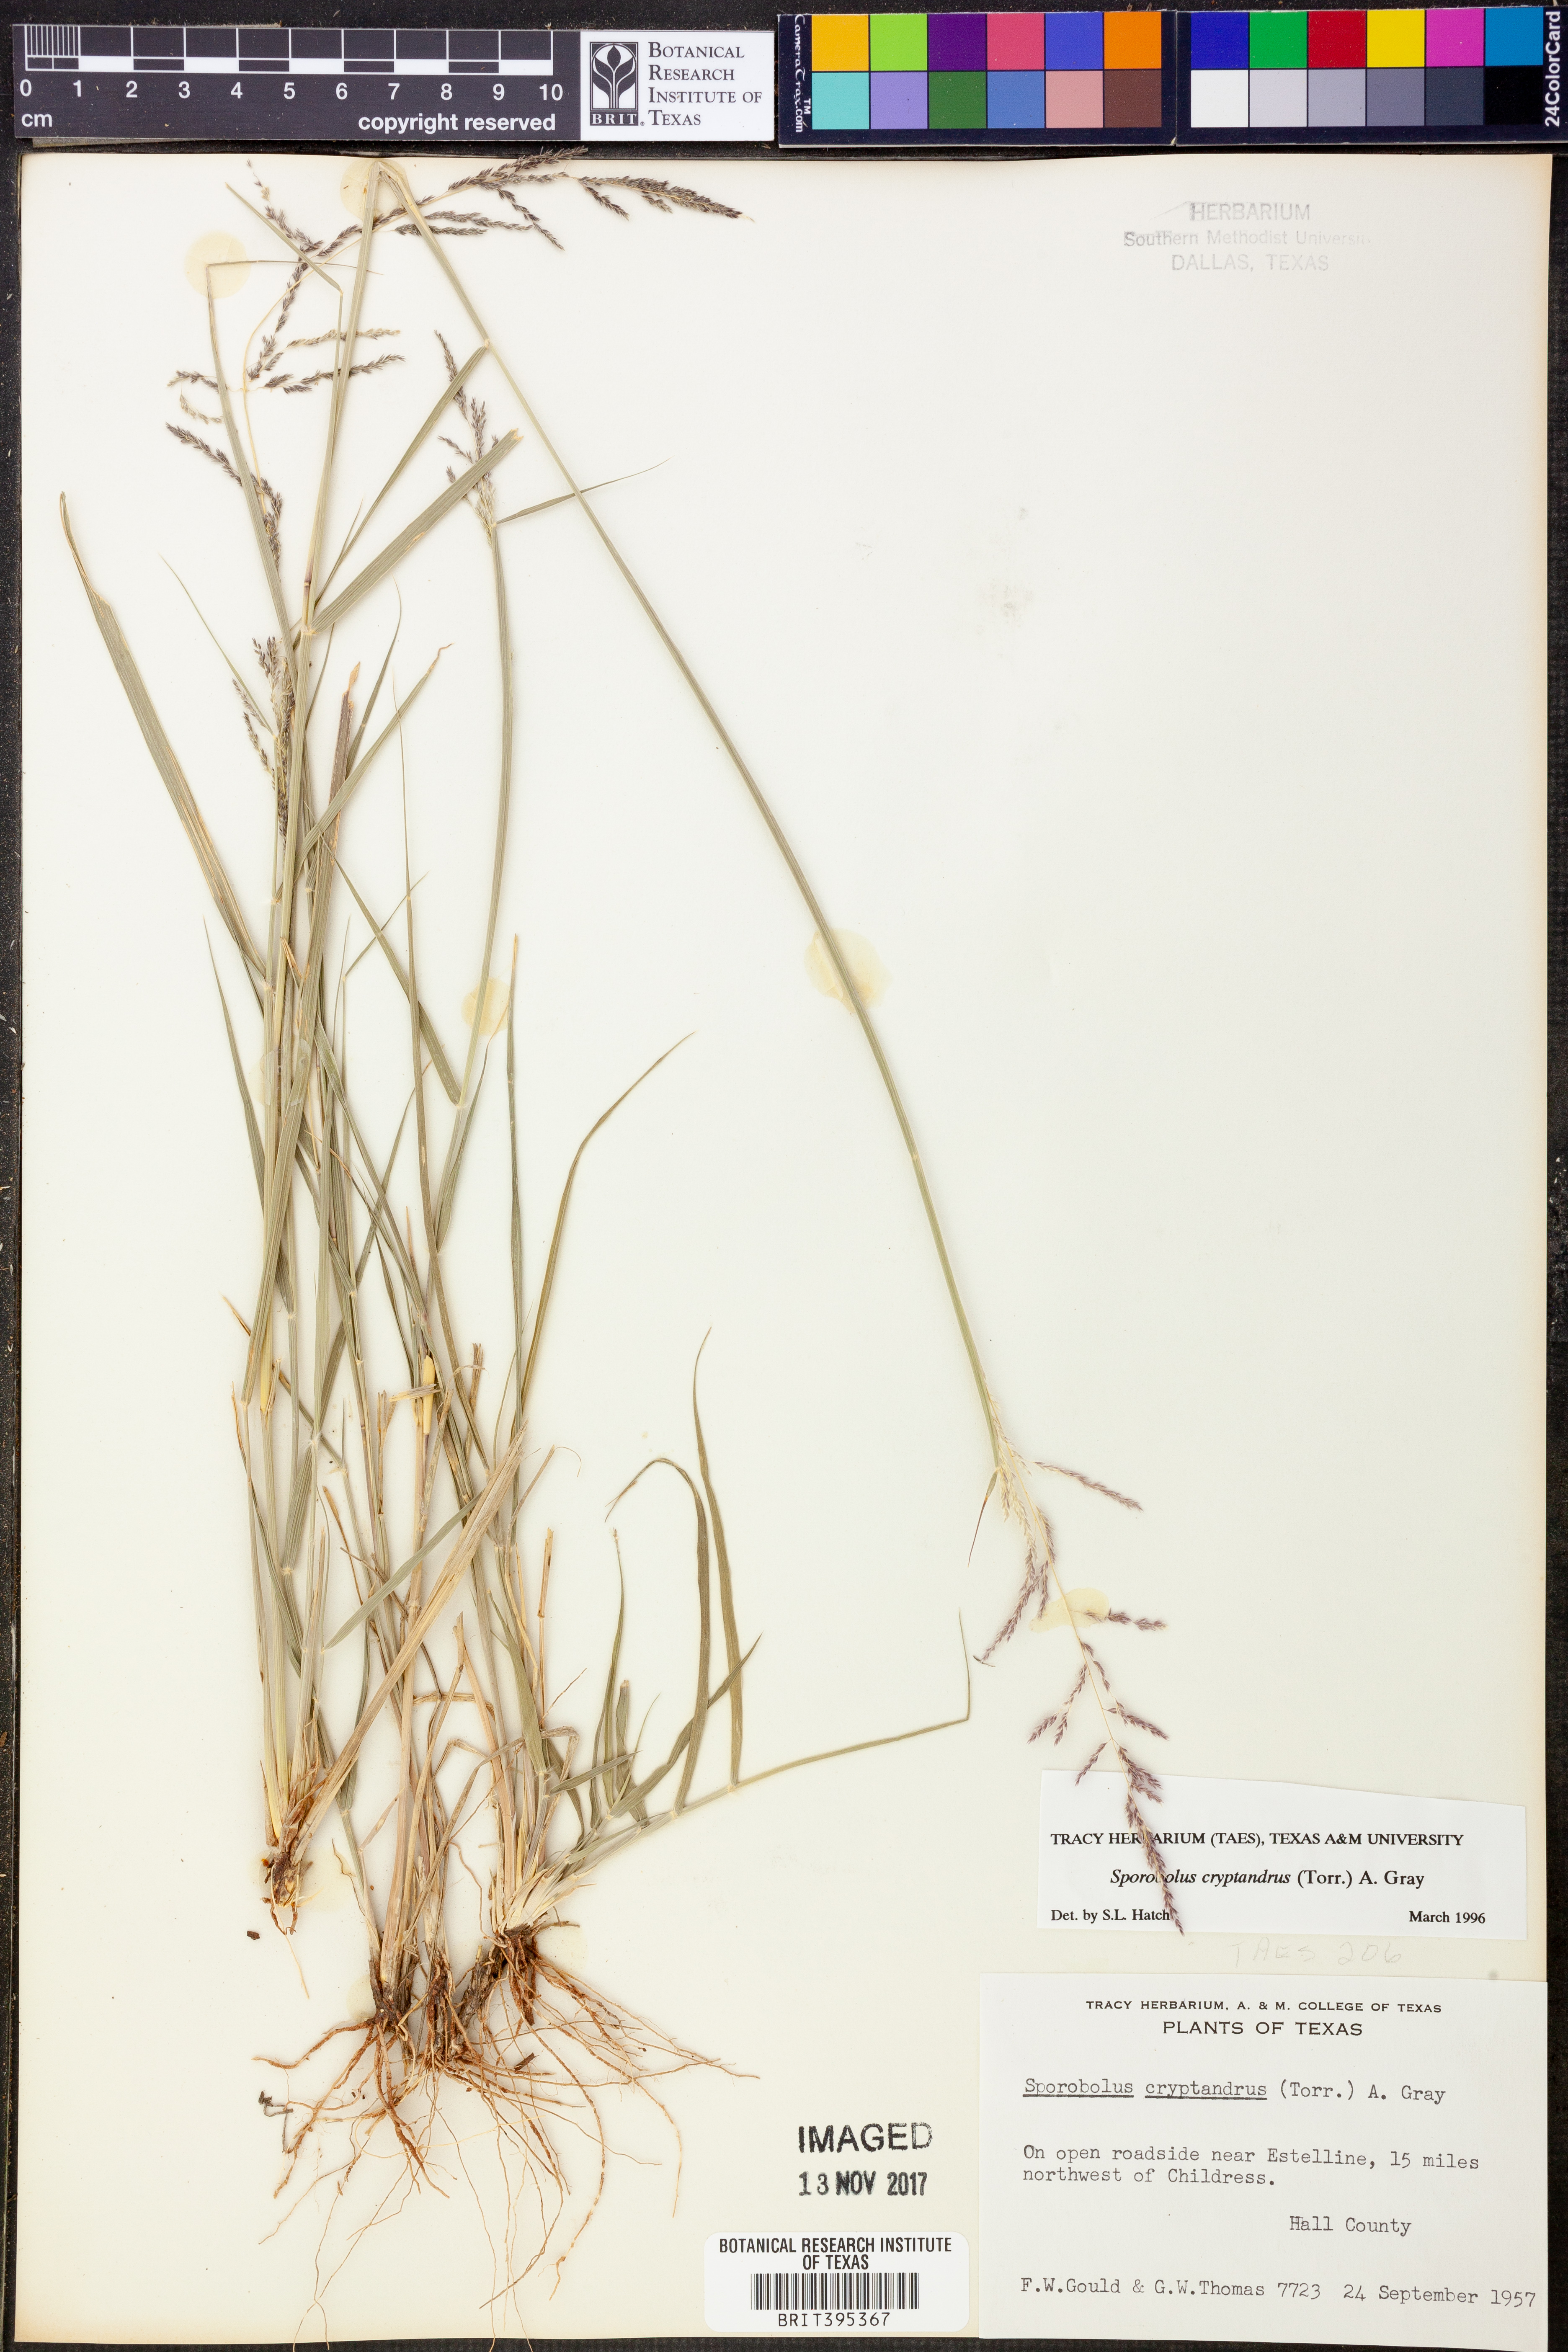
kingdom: Plantae
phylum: Tracheophyta
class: Liliopsida
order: Poales
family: Poaceae
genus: Sporobolus
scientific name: Sporobolus cryptandrus
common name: Sand dropseed
